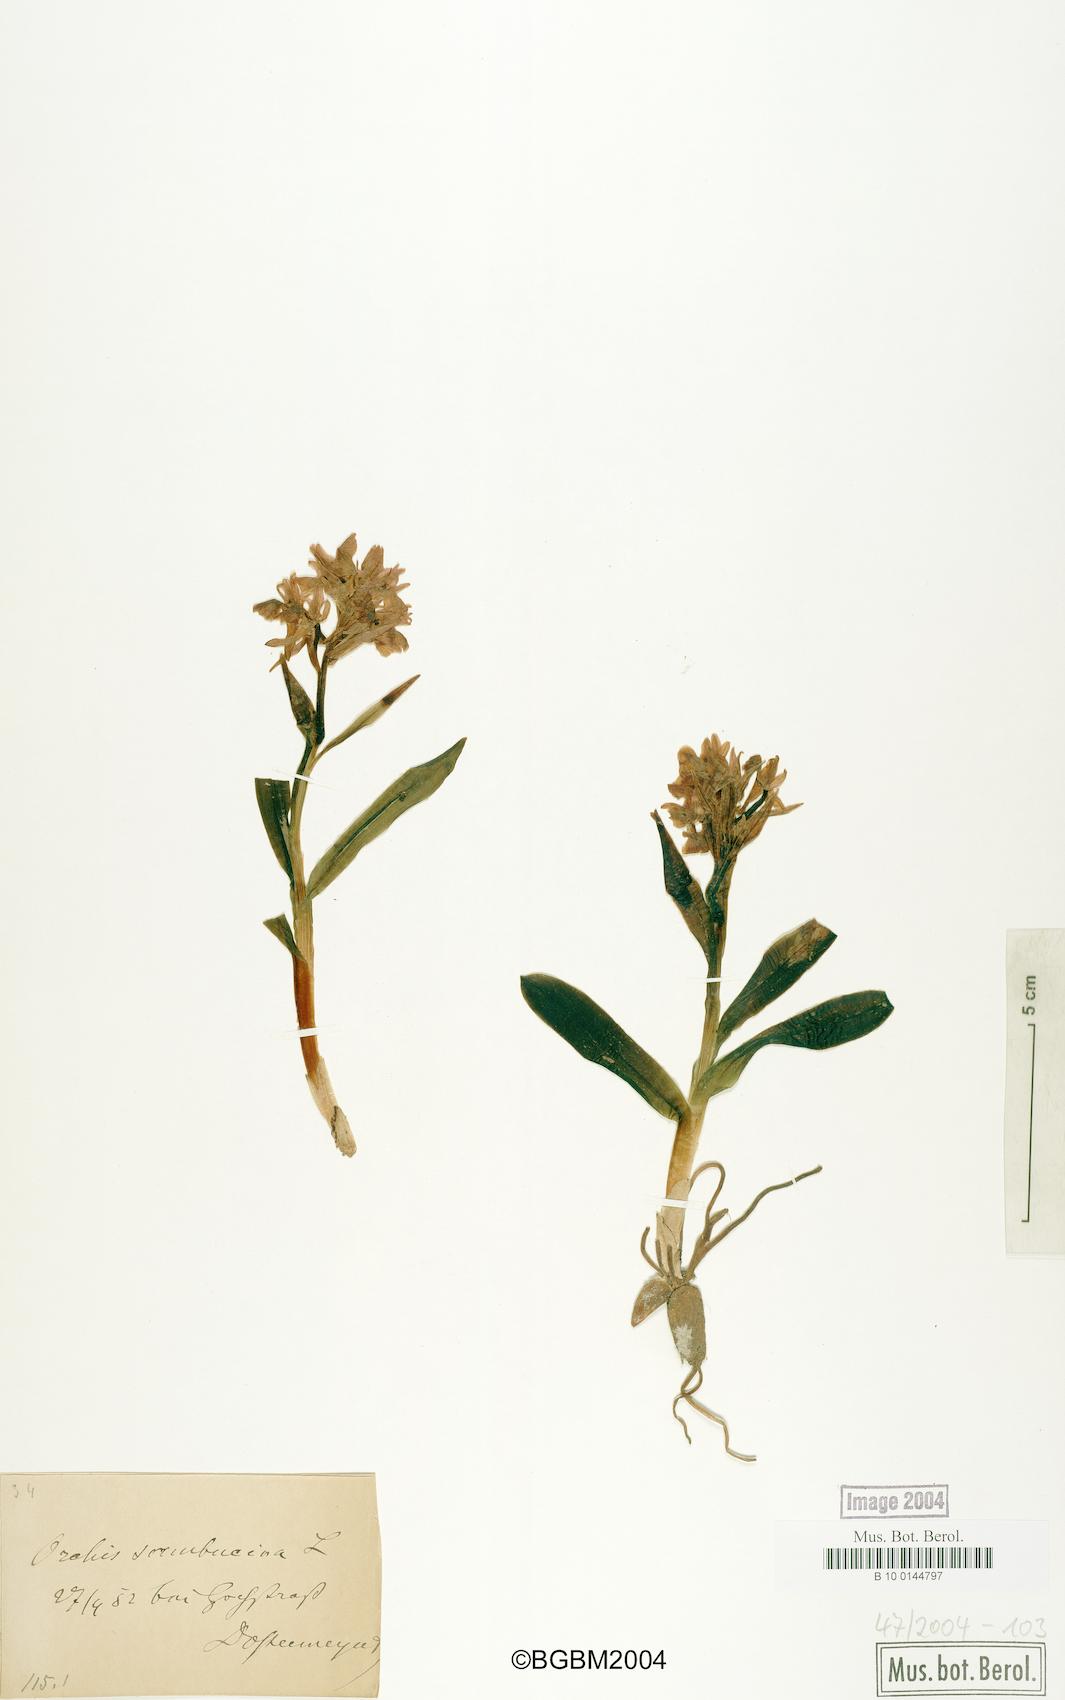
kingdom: Plantae
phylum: Tracheophyta
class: Liliopsida
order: Asparagales
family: Orchidaceae
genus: Dactylorhiza
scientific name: Dactylorhiza sambucina
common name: Elder-flowered orchid
